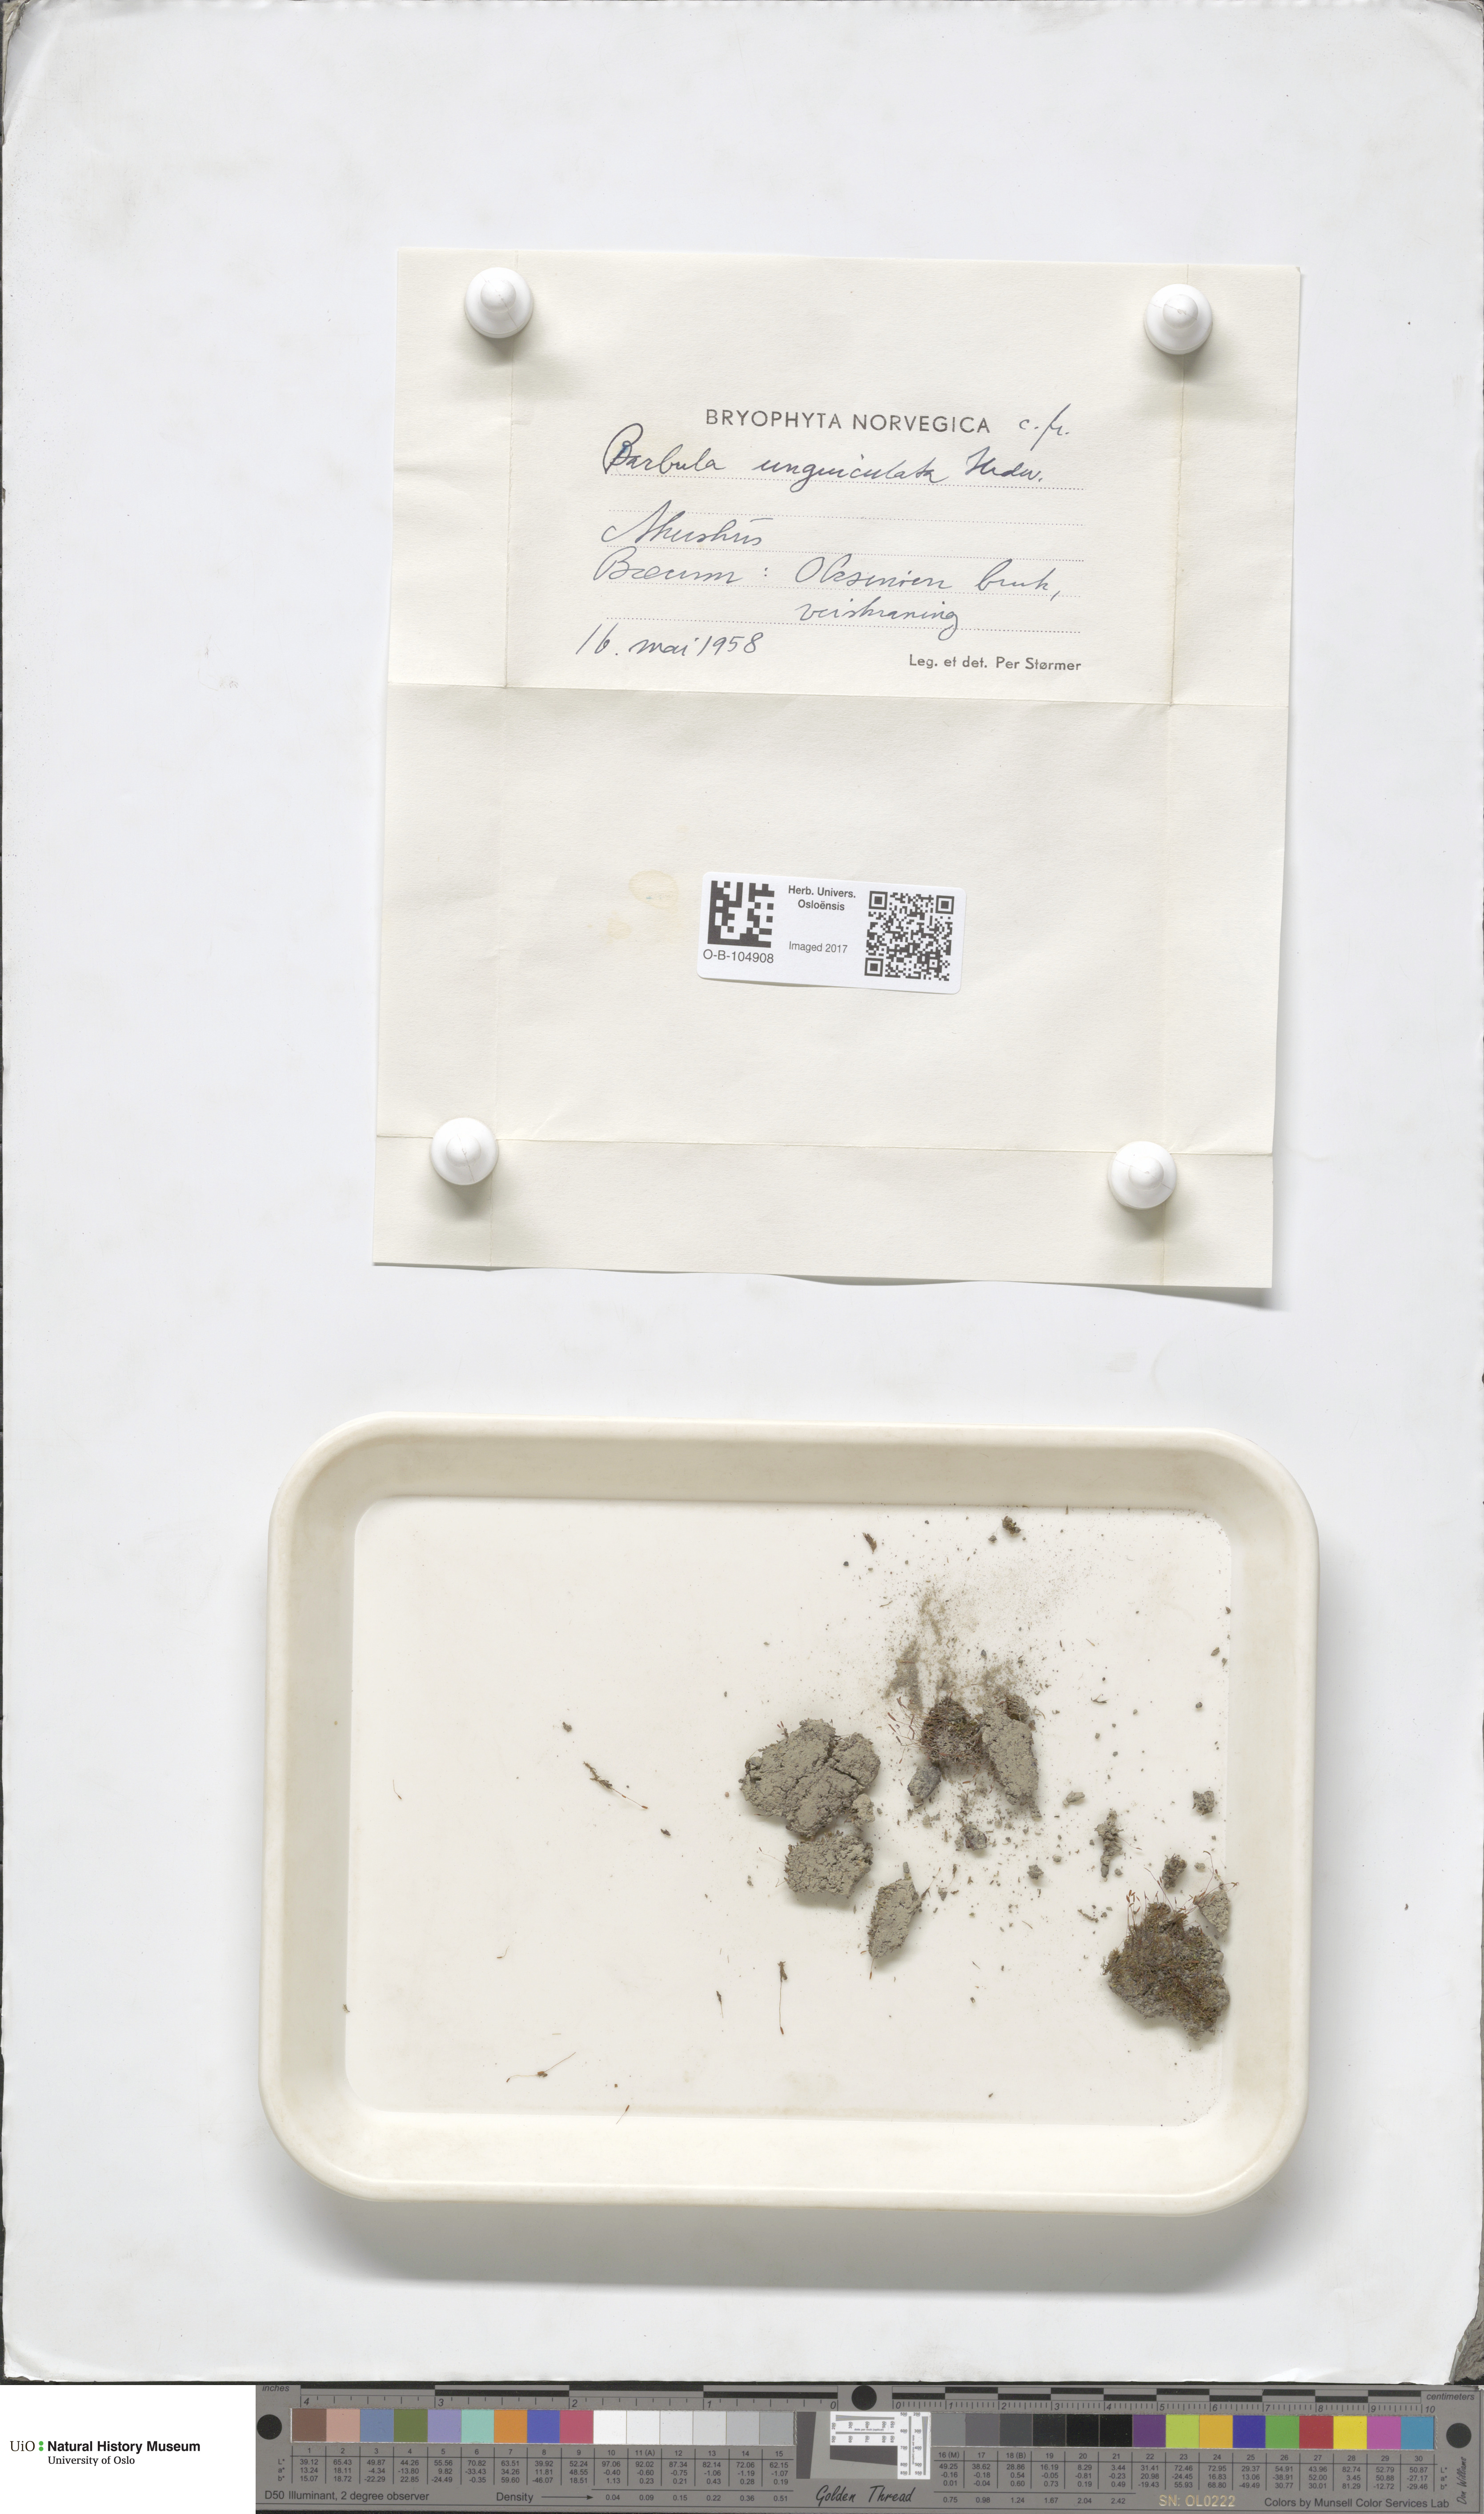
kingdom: Plantae
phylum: Bryophyta
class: Bryopsida
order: Pottiales
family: Pottiaceae
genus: Barbula
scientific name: Barbula unguiculata
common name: Prickly beard moss
